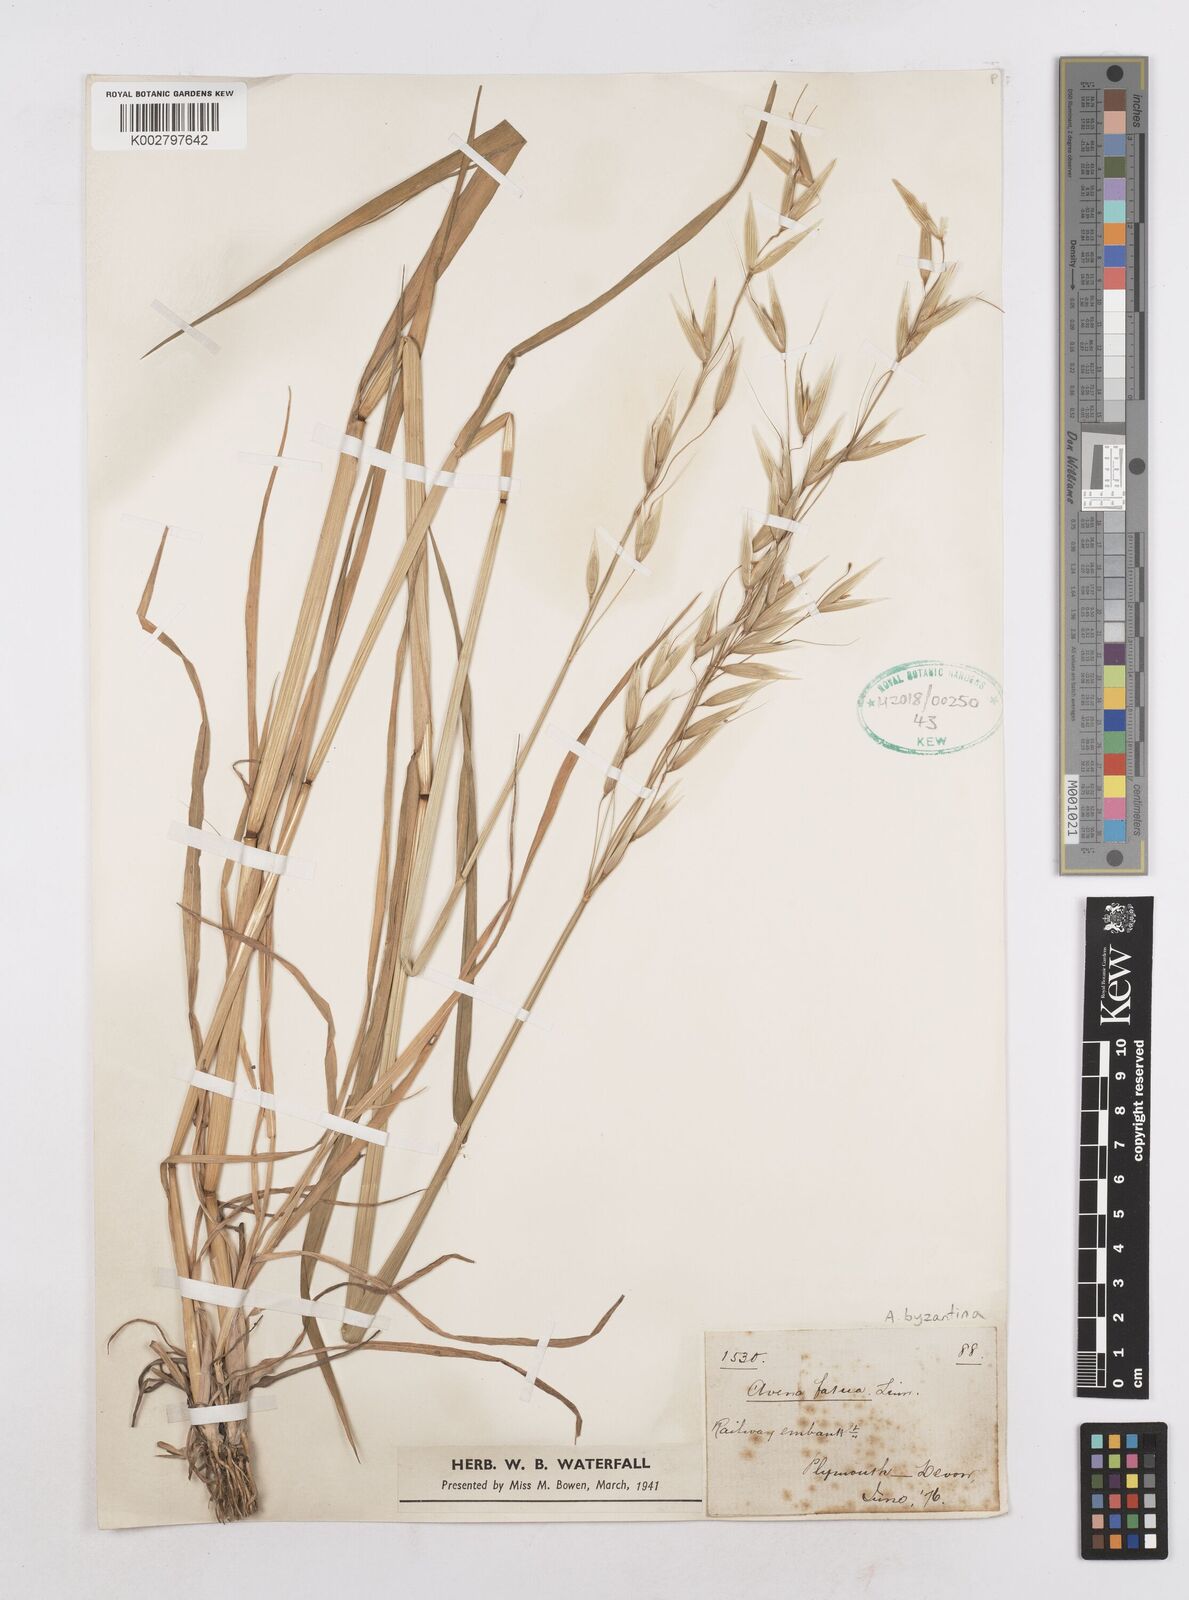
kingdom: Plantae
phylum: Tracheophyta
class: Liliopsida
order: Poales
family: Poaceae
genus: Avena
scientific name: Avena byzantina
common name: Algerian oat
